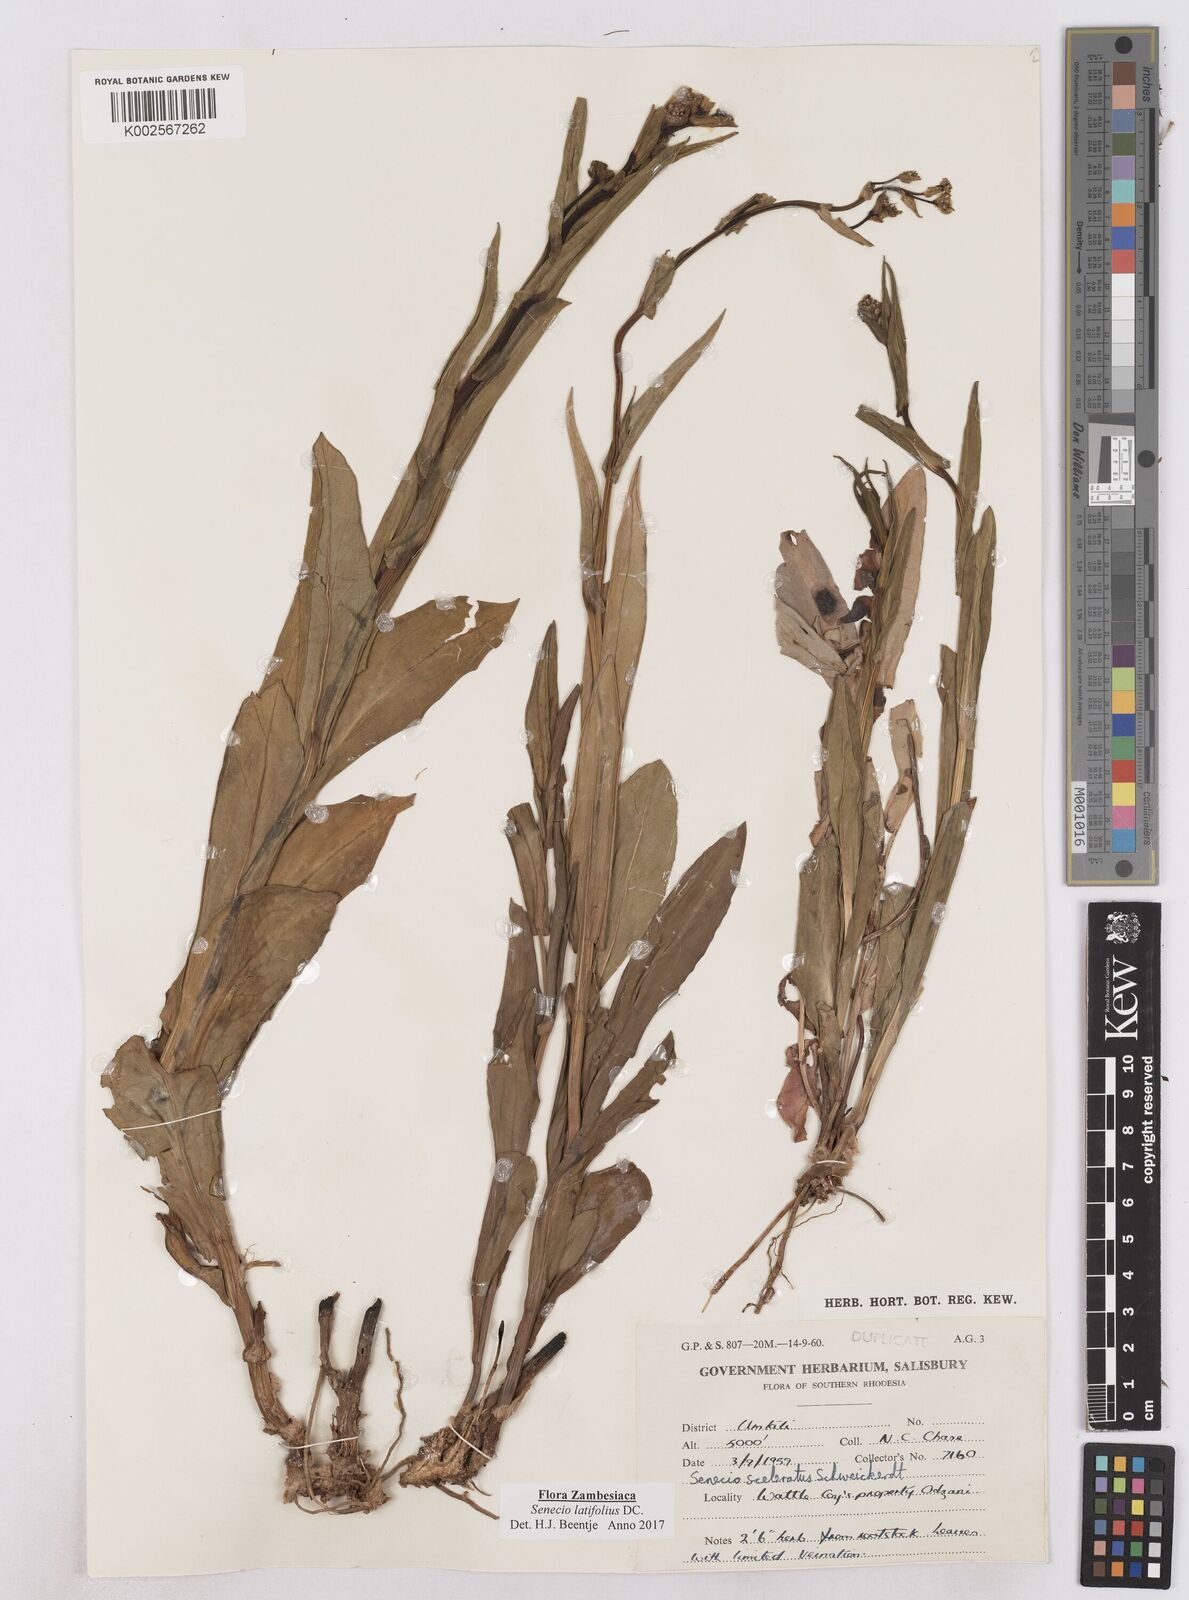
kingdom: Plantae
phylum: Tracheophyta
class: Magnoliopsida
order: Asterales
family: Asteraceae
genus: Senecio
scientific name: Senecio latifolius
